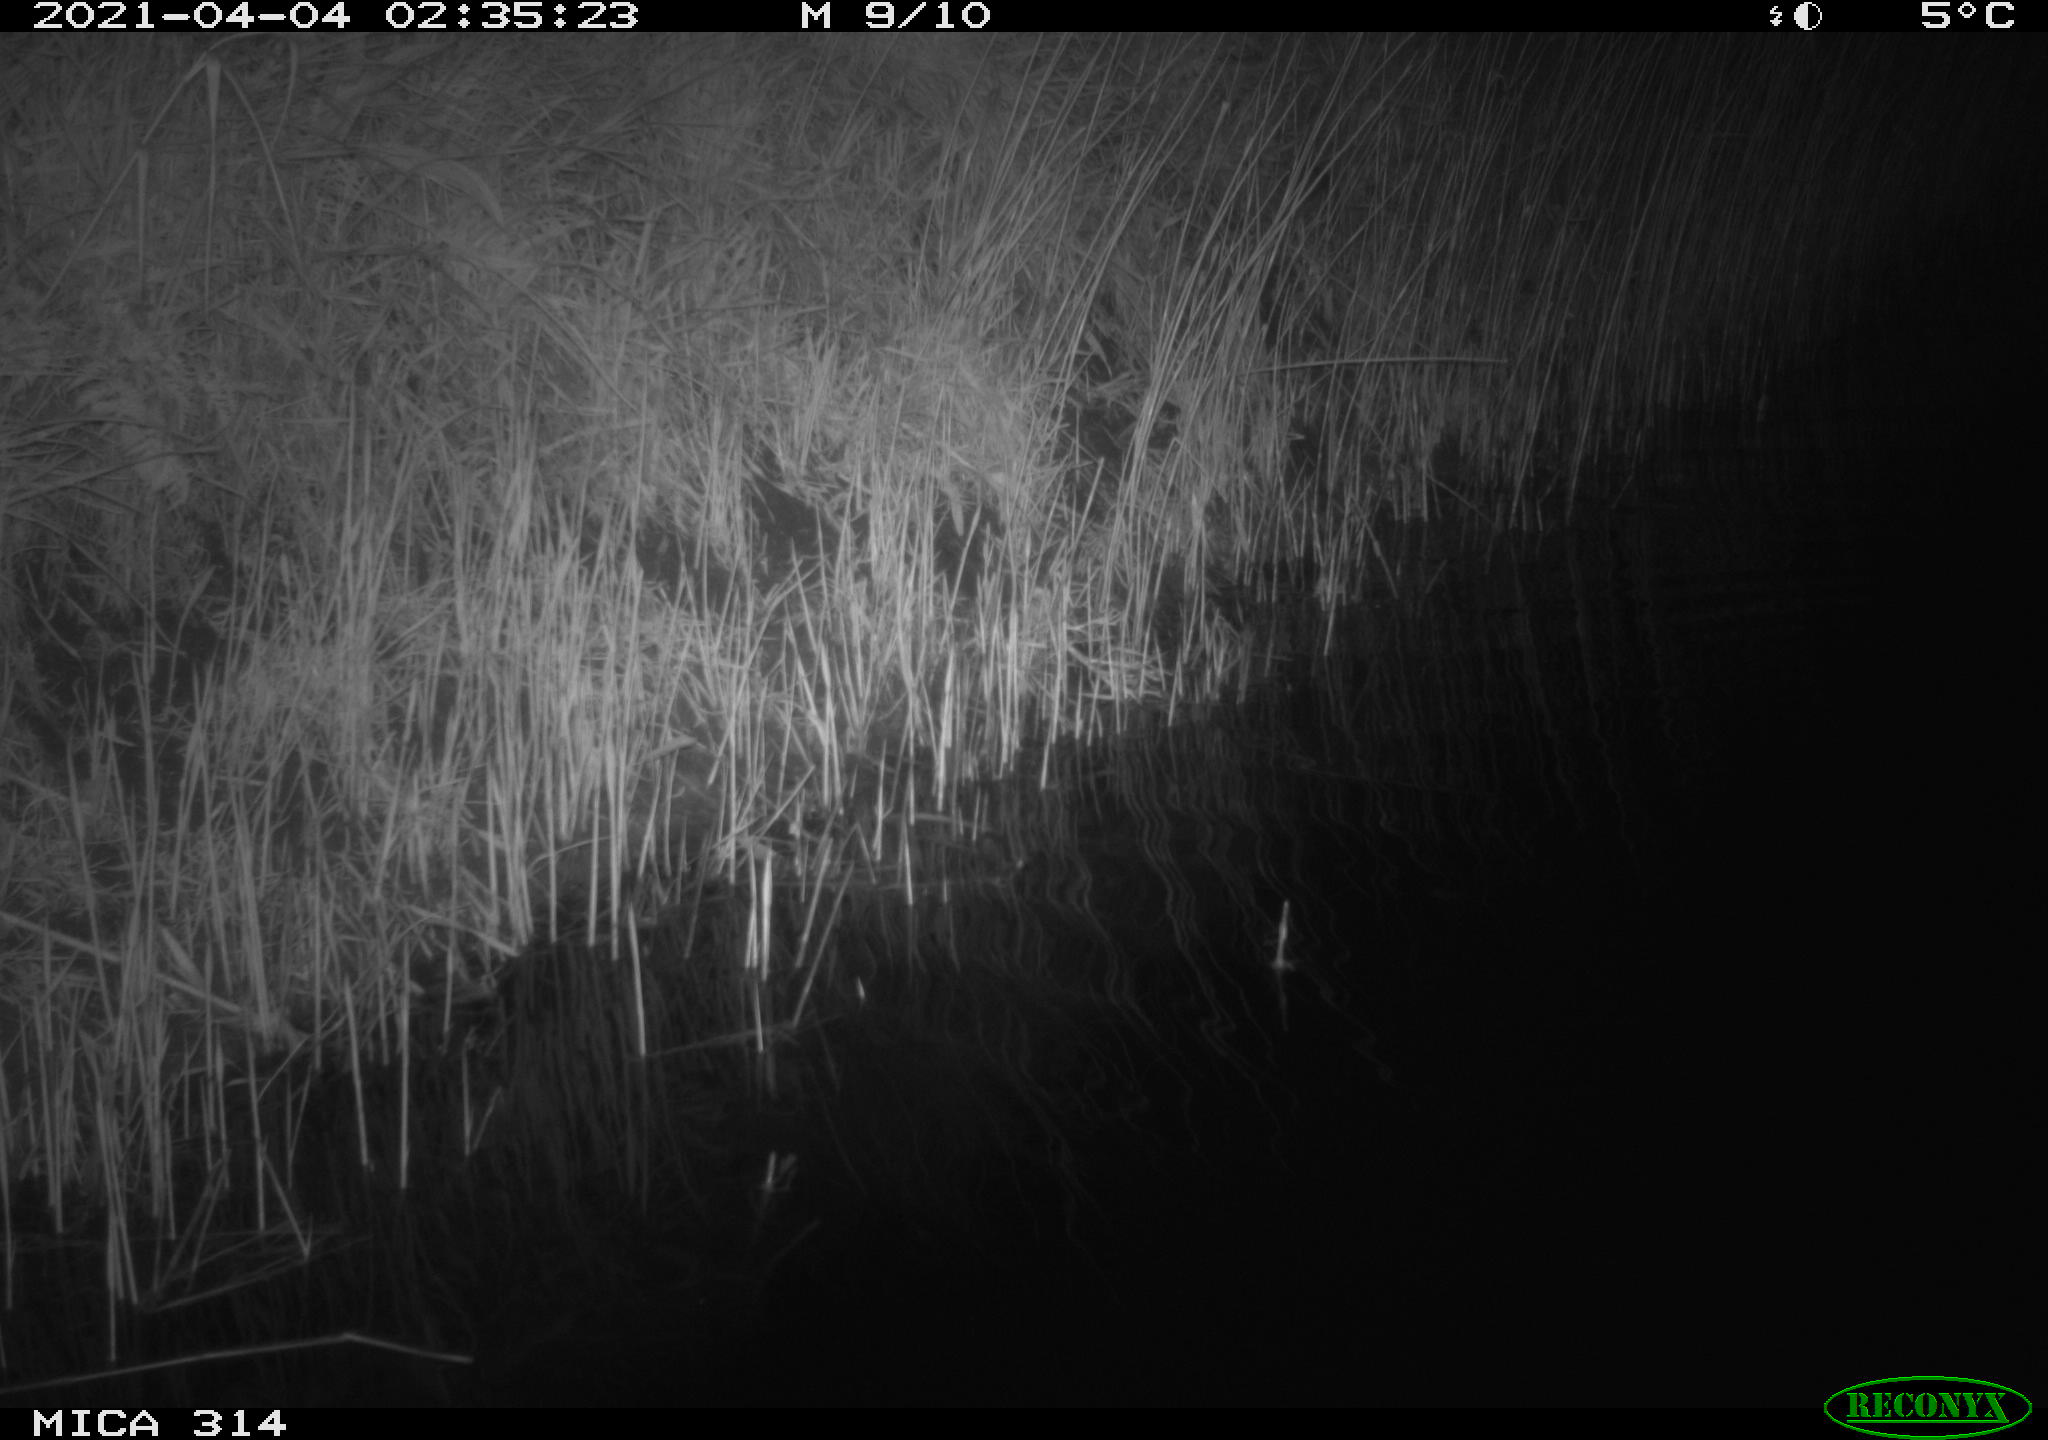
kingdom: Animalia
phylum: Chordata
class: Mammalia
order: Rodentia
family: Muridae
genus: Rattus
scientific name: Rattus norvegicus
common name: Brown rat
